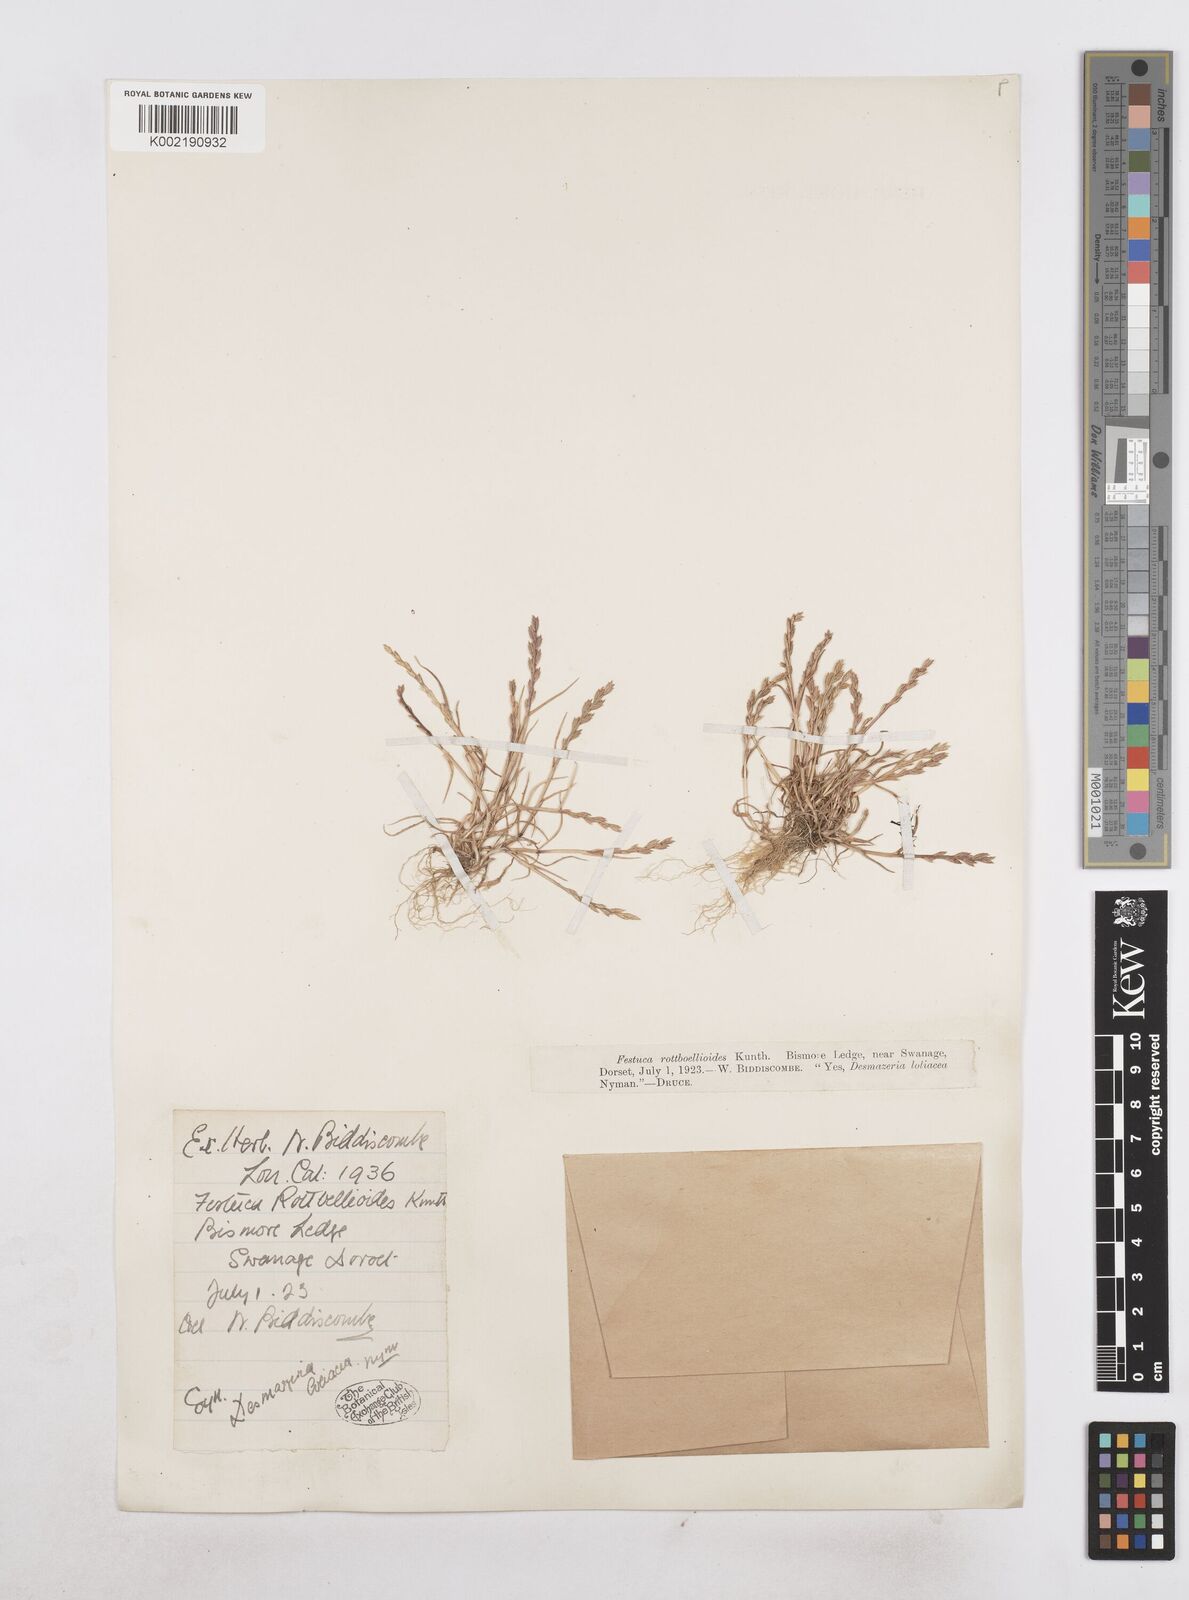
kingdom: Plantae
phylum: Tracheophyta
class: Liliopsida
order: Poales
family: Poaceae
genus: Catapodium
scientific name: Catapodium marinum
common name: Sea fern-grass
